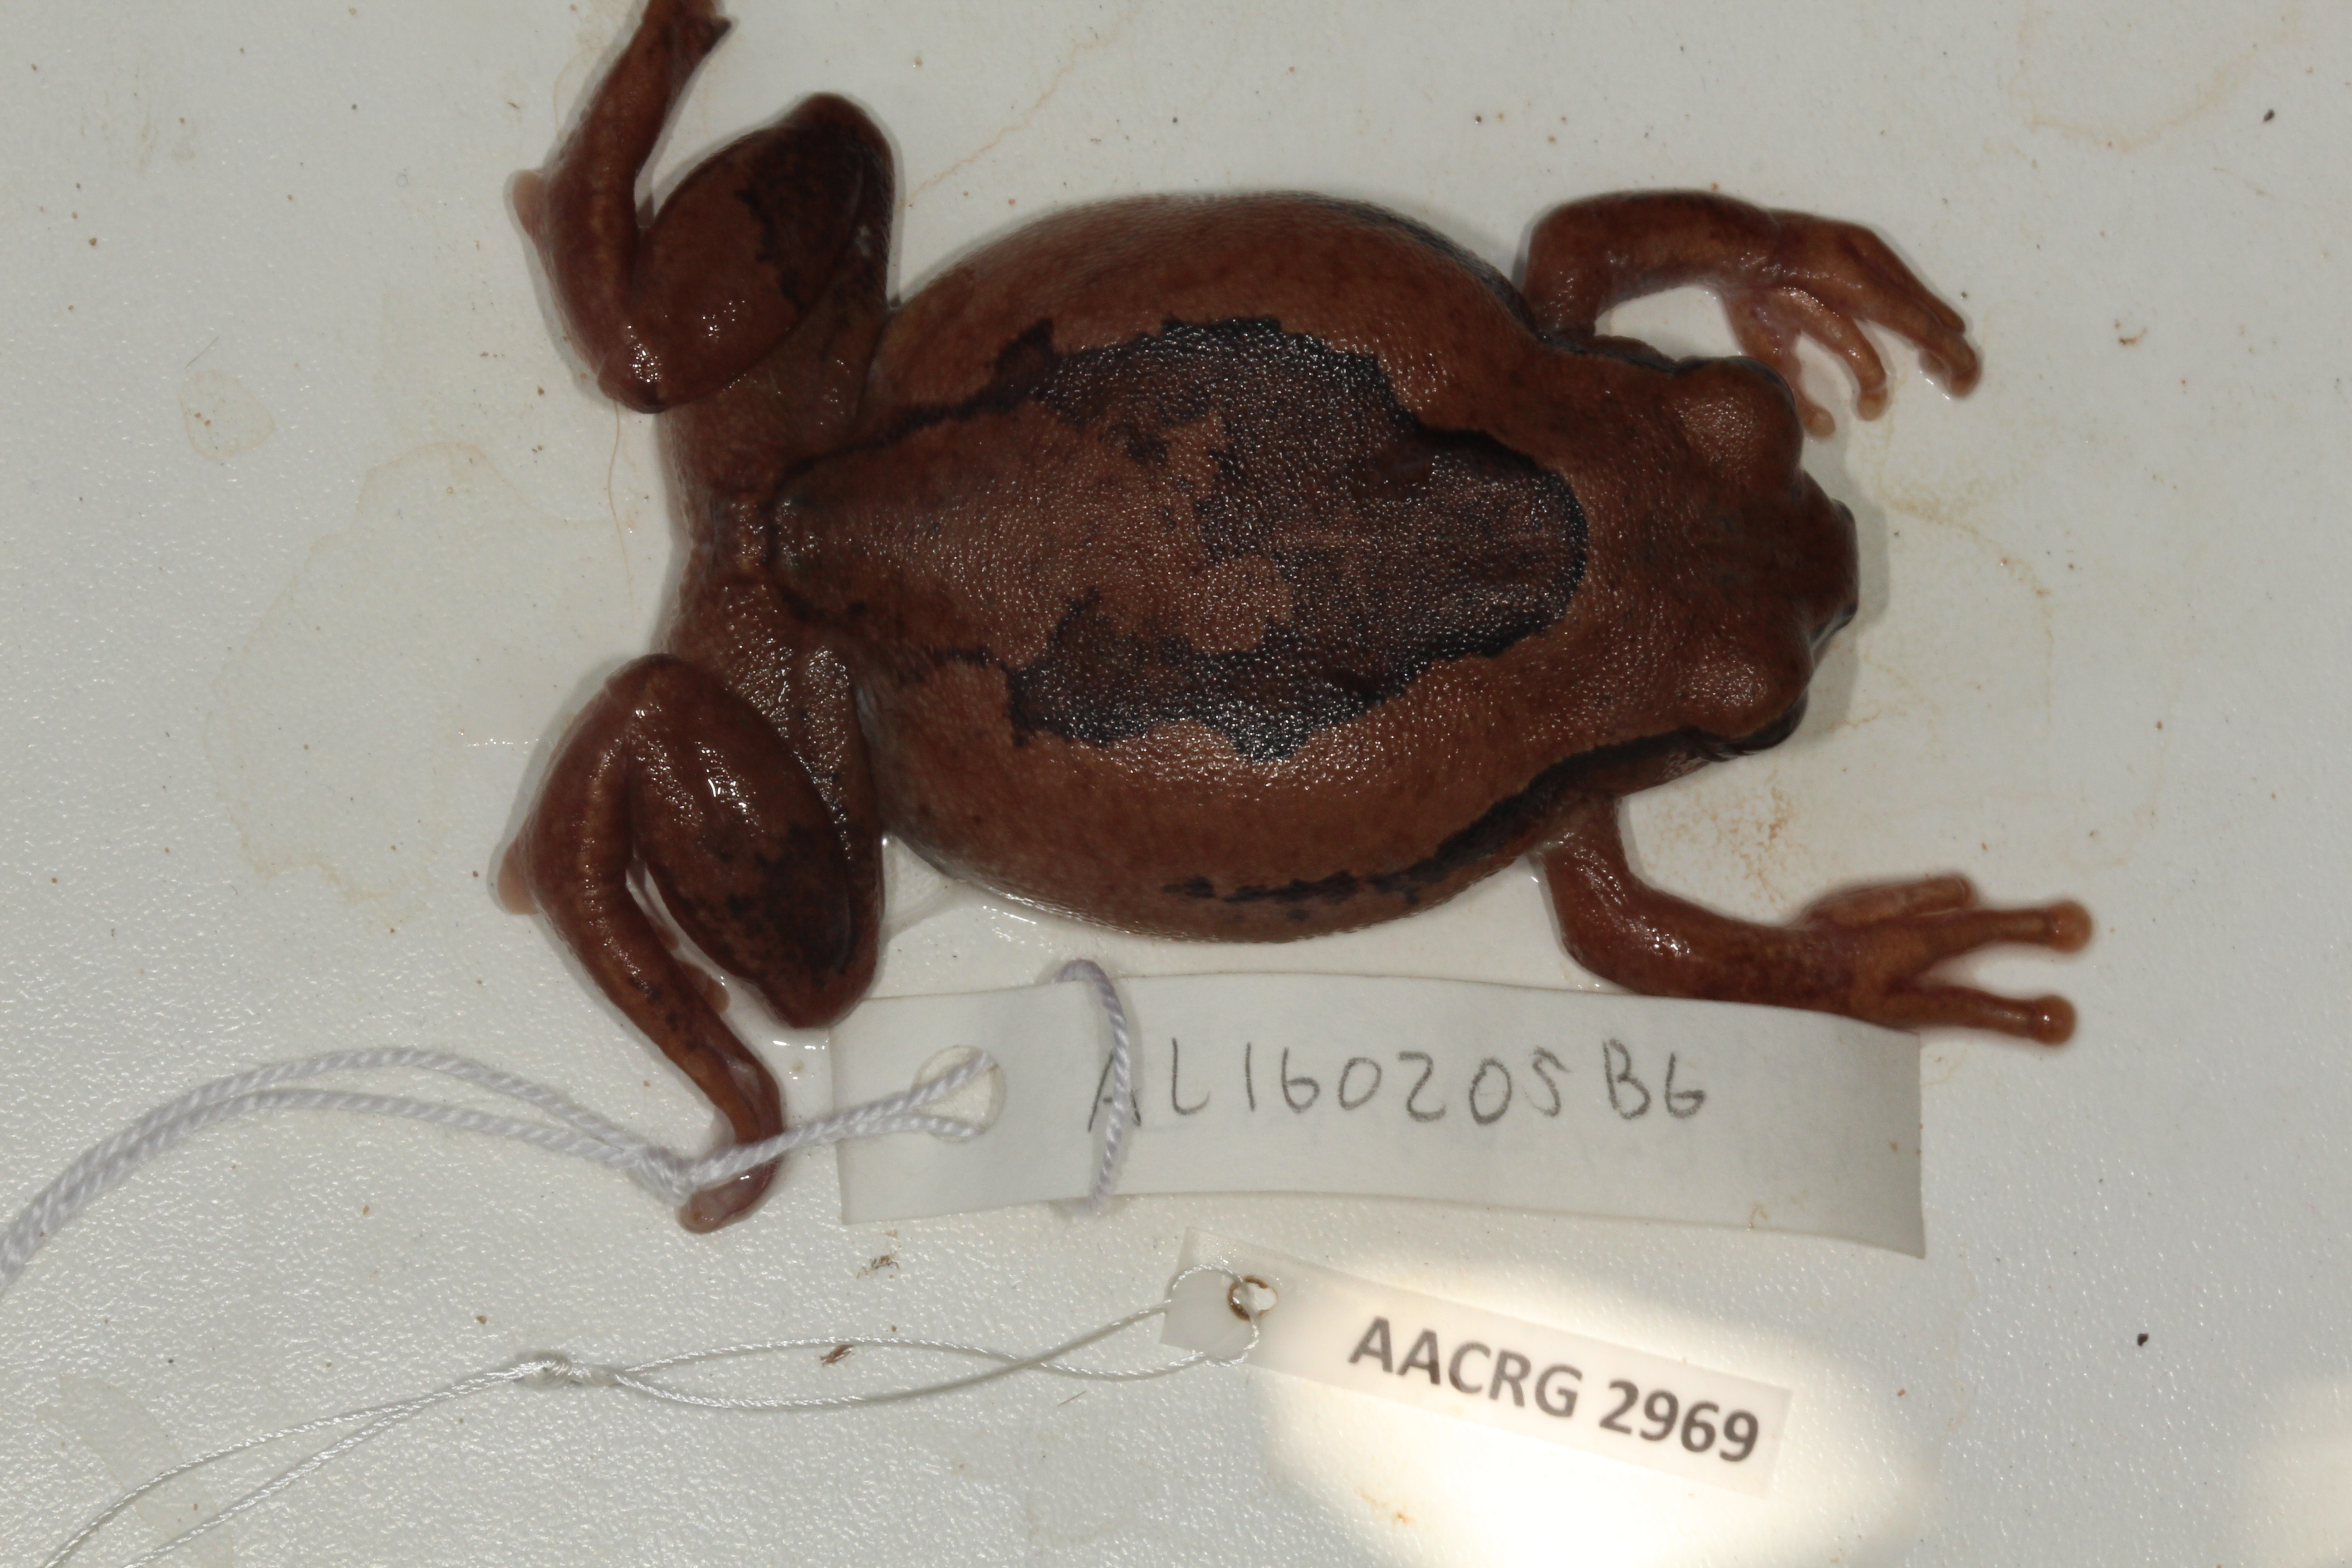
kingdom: Animalia
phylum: Chordata
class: Amphibia
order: Anura
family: Arthroleptidae
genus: Leptopelis
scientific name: Leptopelis mossambicus
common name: Mozambique tree frog
